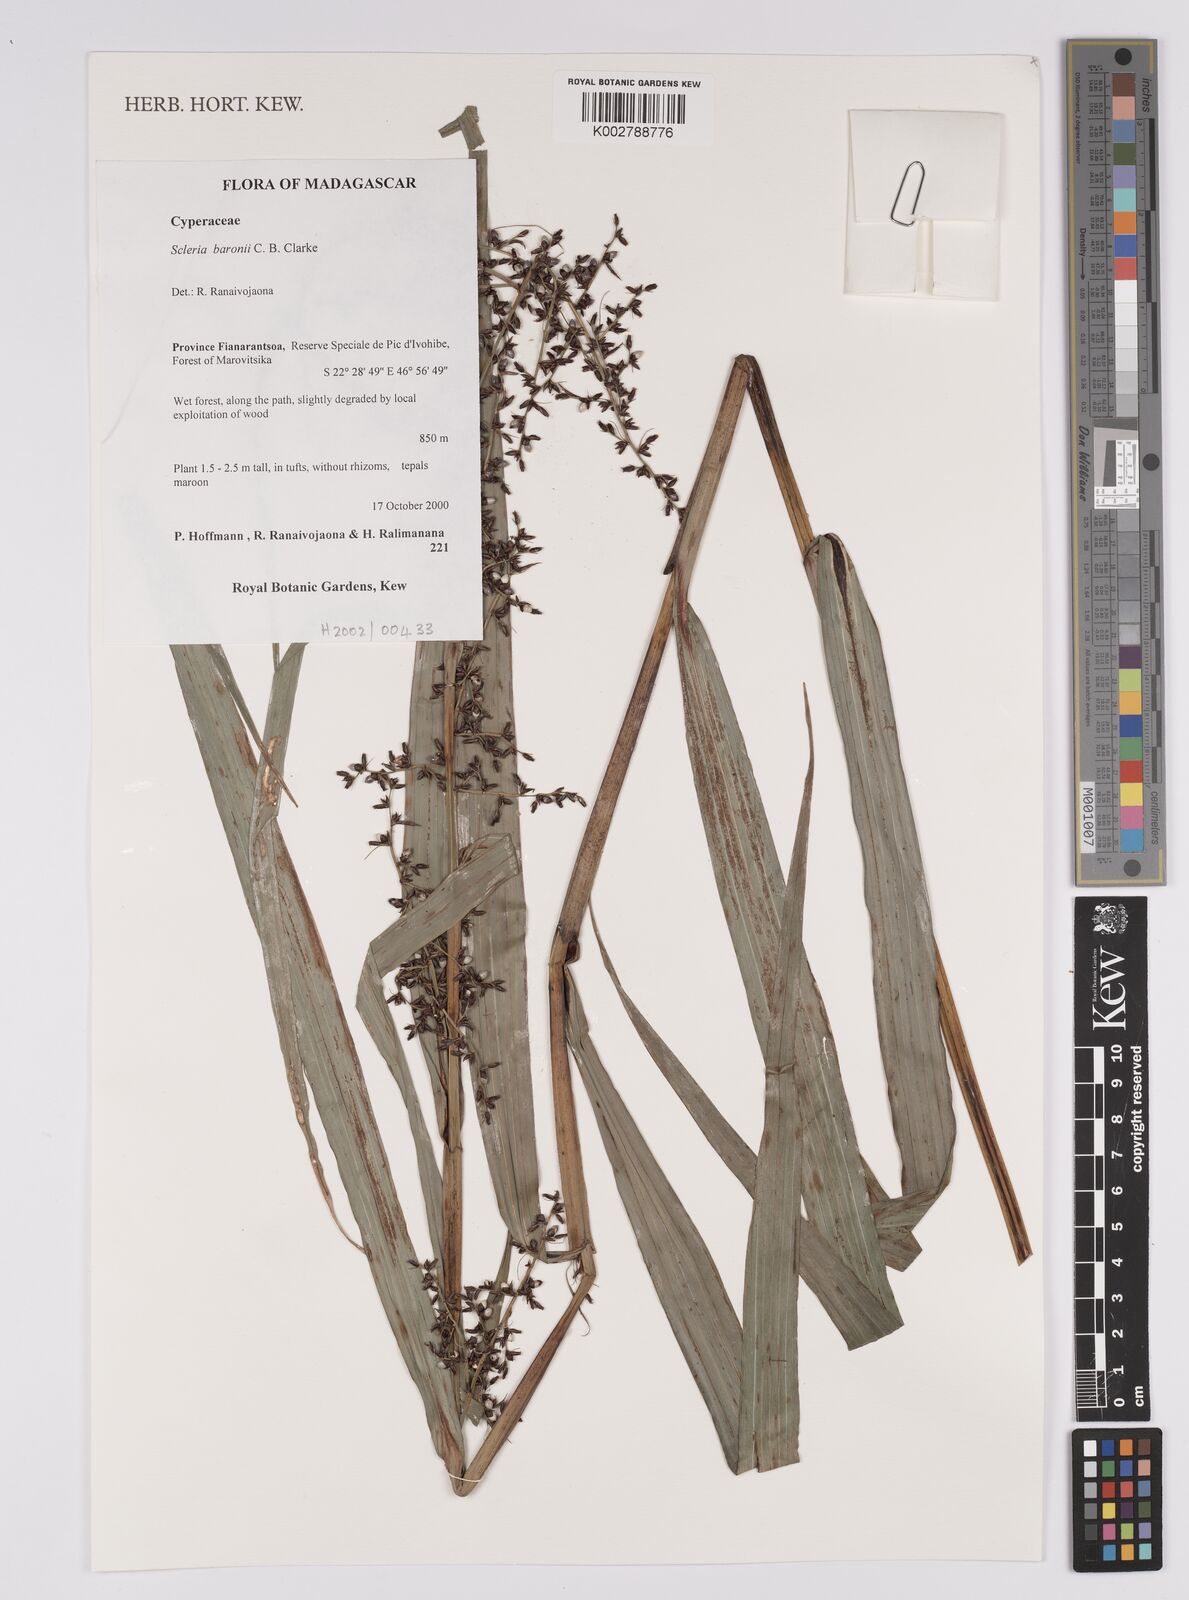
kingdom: Plantae
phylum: Tracheophyta
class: Liliopsida
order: Poales
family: Cyperaceae
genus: Scleria
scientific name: Scleria baronii
